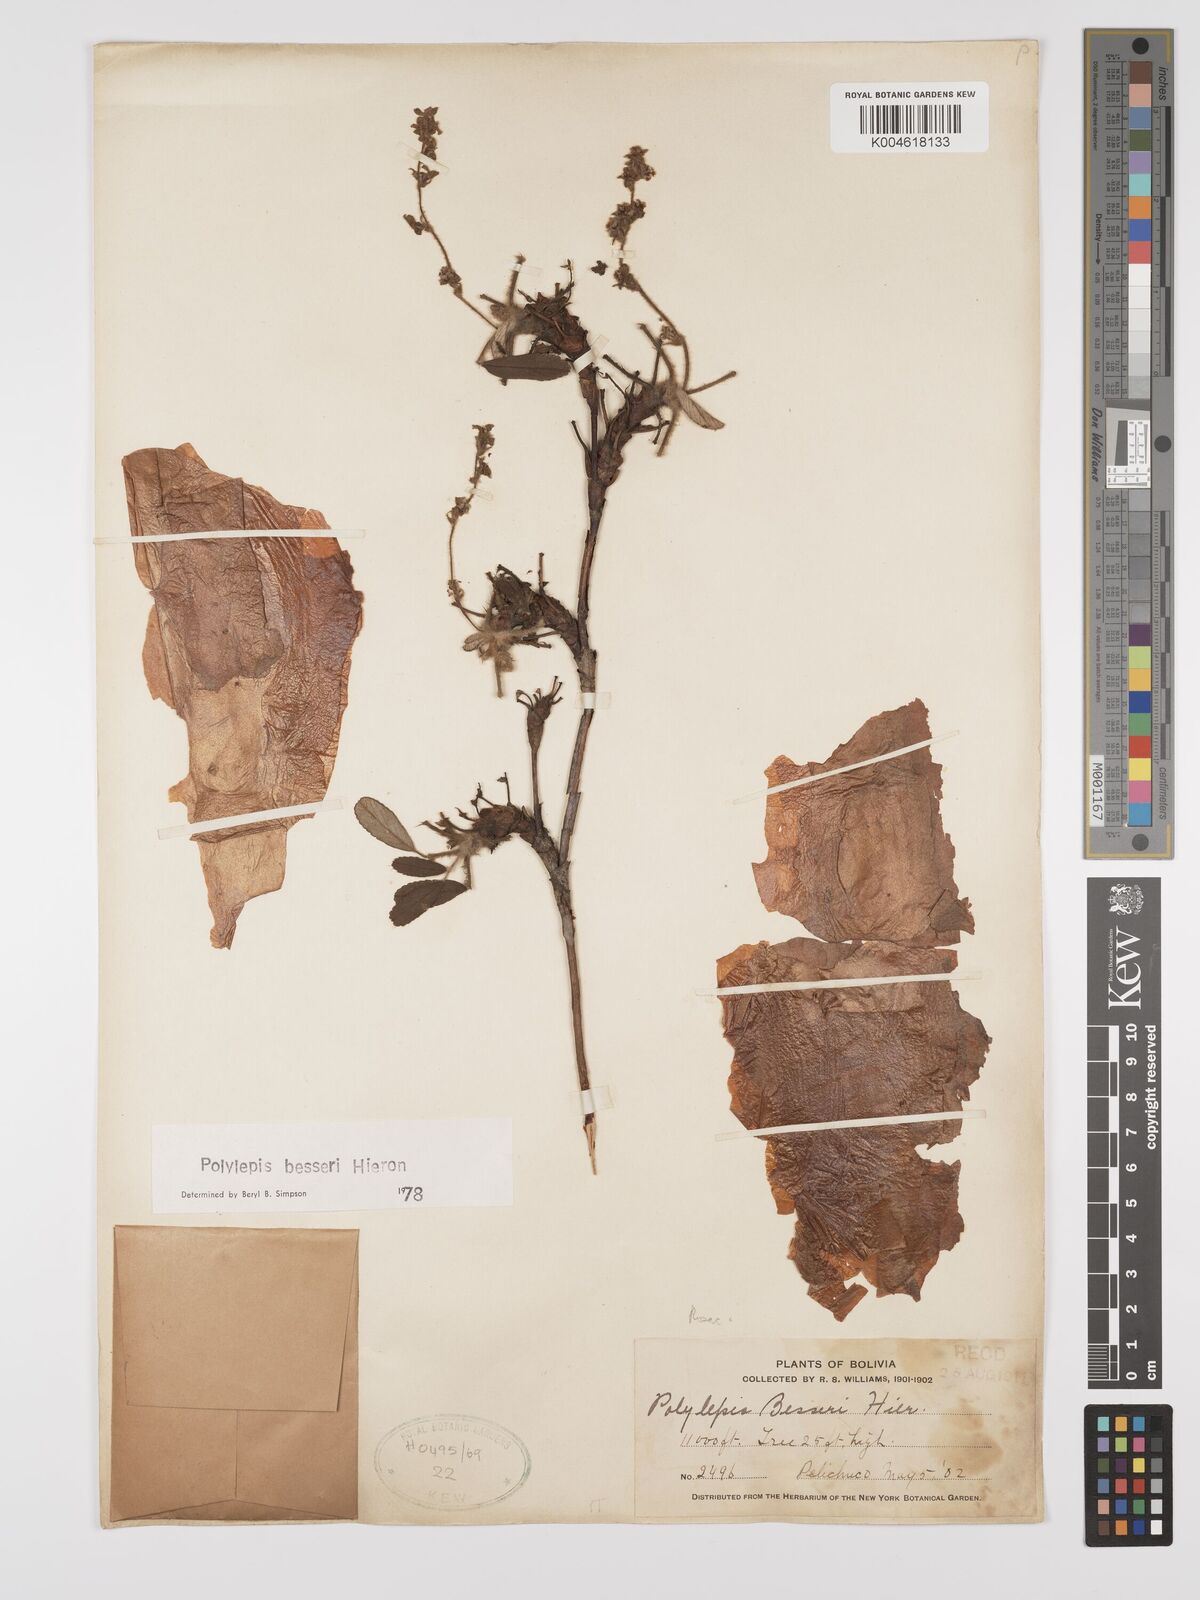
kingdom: Plantae
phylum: Tracheophyta
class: Magnoliopsida
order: Rosales
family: Rosaceae
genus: Polylepis
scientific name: Polylepis
